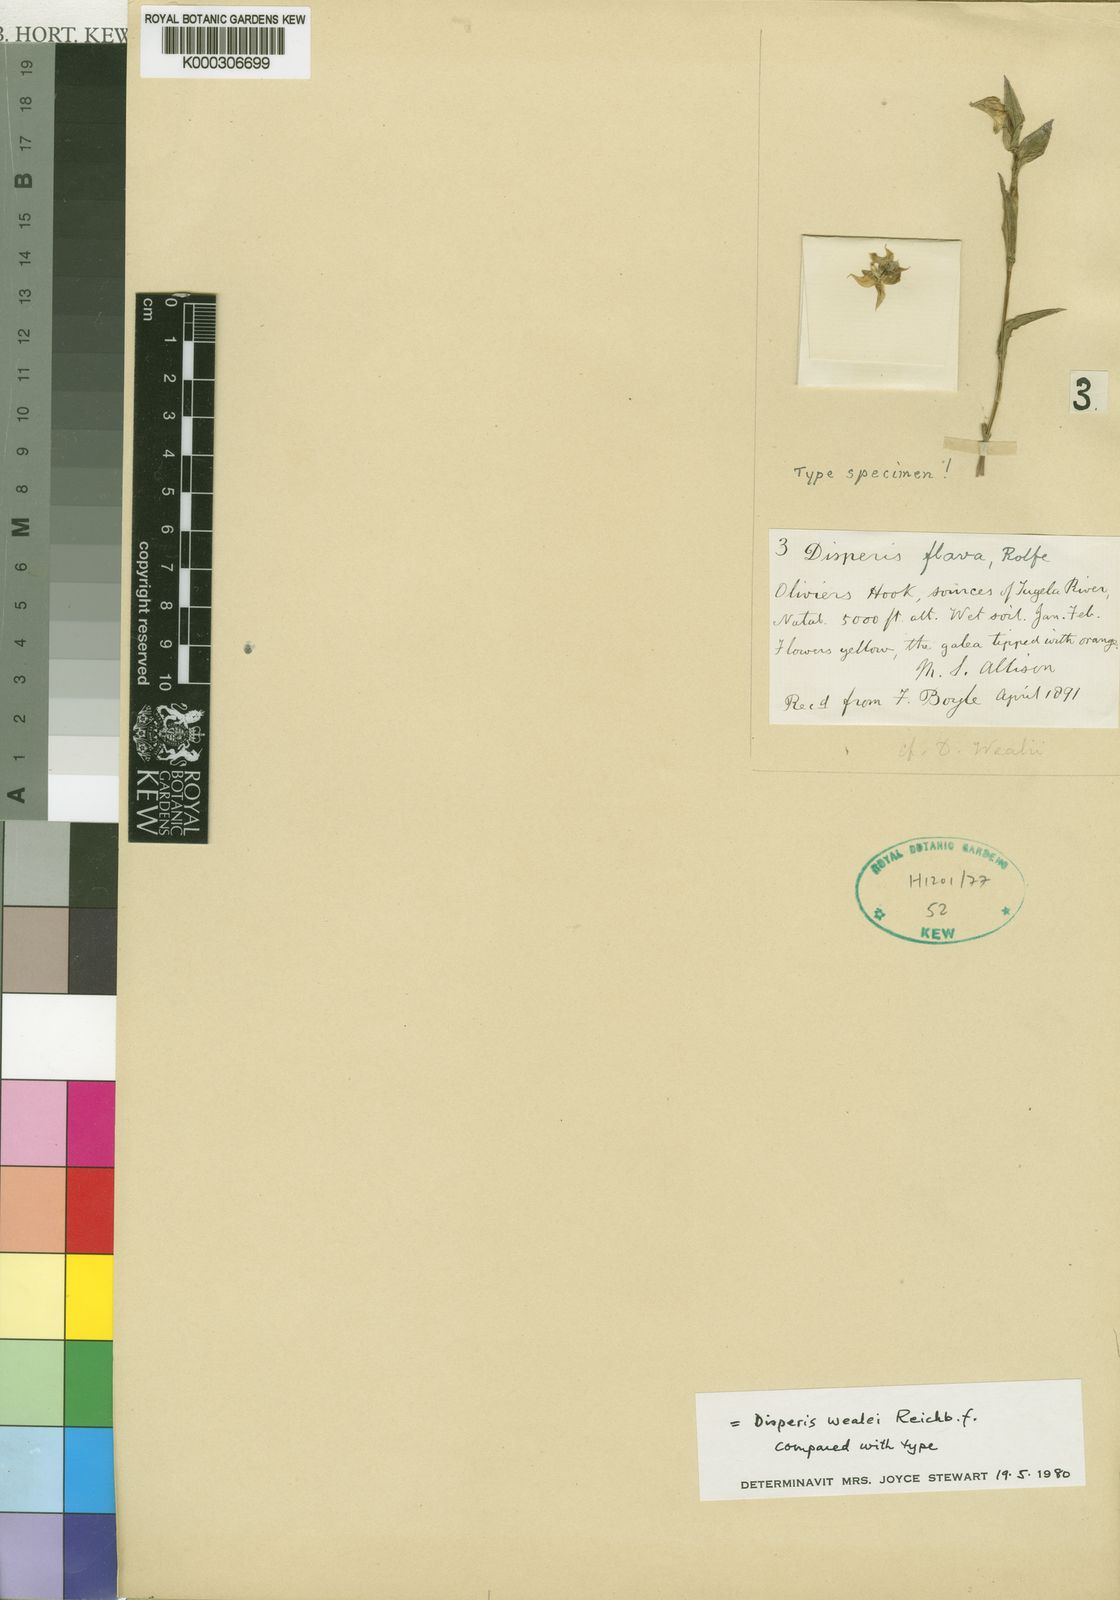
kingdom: Plantae
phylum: Tracheophyta
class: Liliopsida
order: Asparagales
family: Orchidaceae
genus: Disperis
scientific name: Disperis wealei
